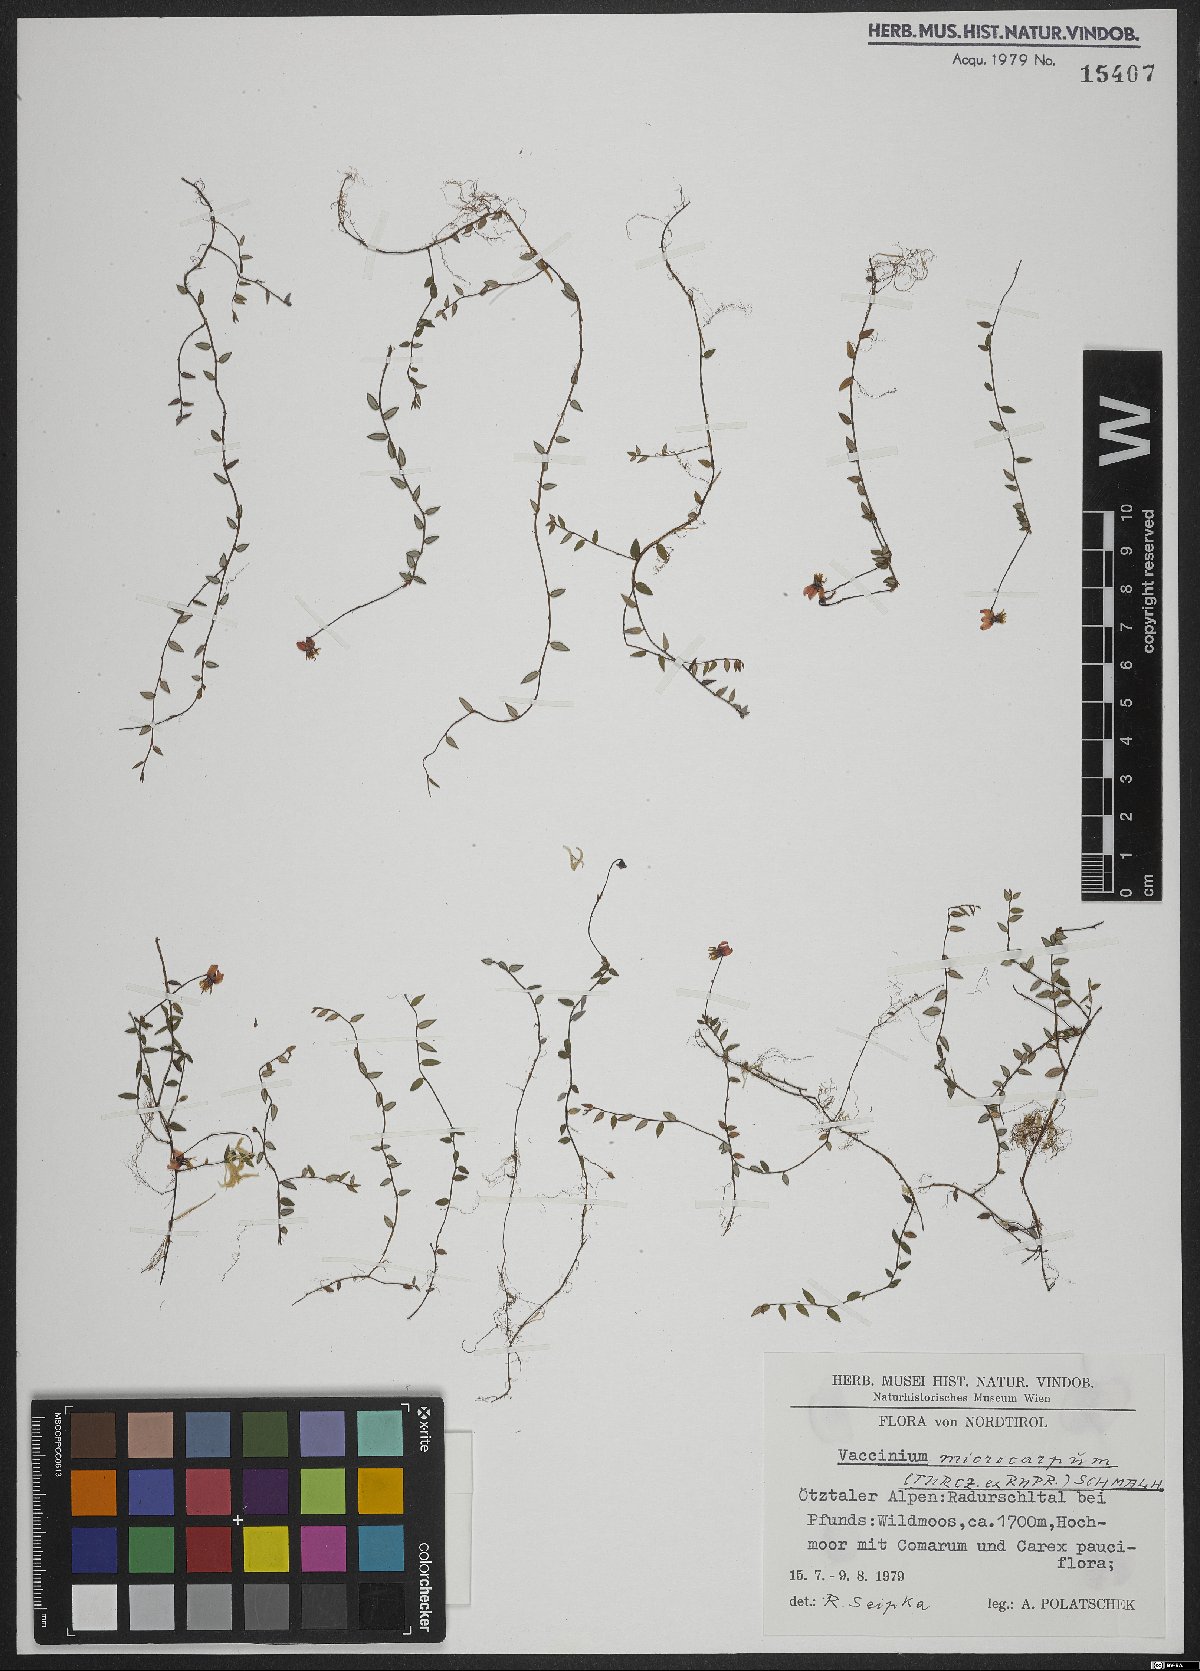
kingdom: Plantae
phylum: Tracheophyta
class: Magnoliopsida
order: Ericales
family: Ericaceae
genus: Vaccinium
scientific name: Vaccinium microcarpum
